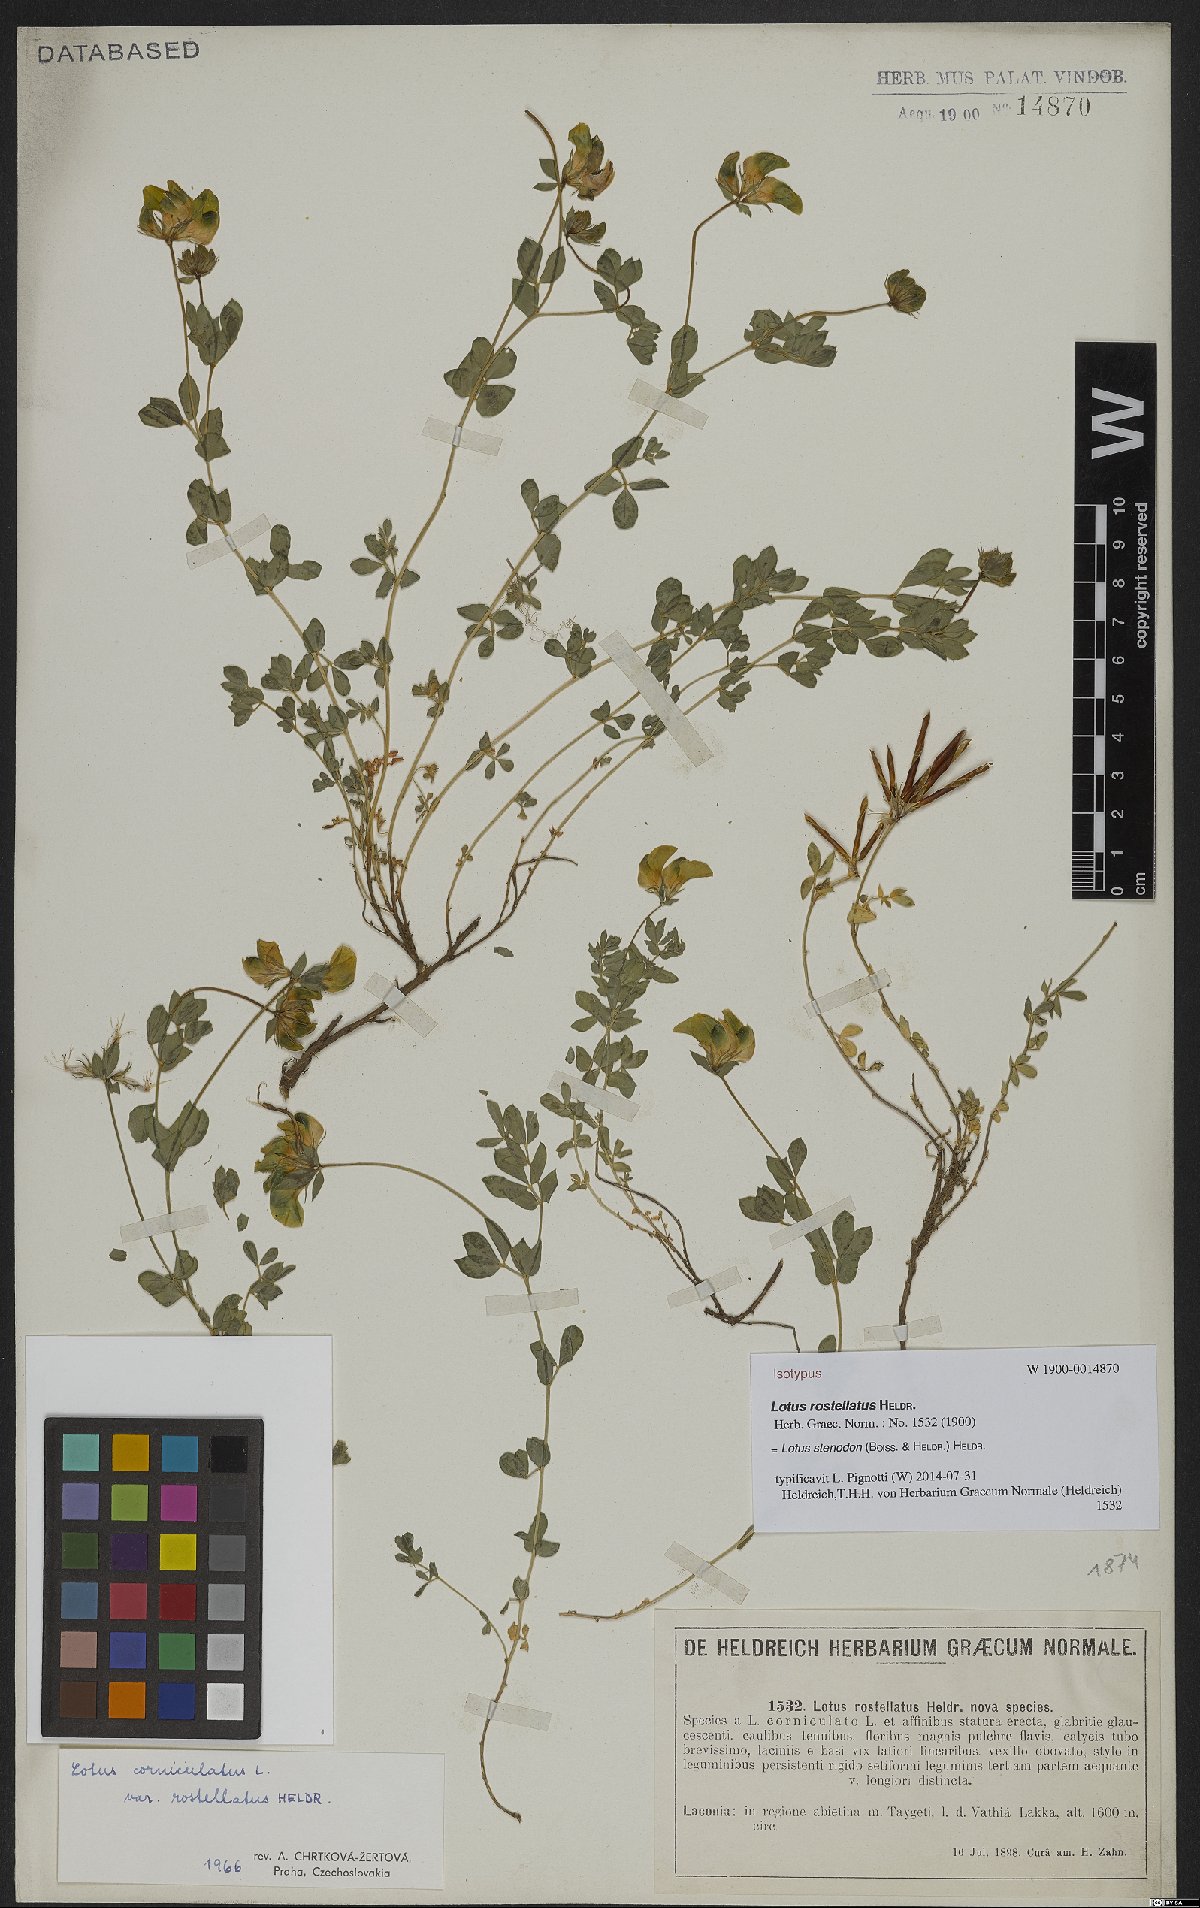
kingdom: Plantae
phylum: Tracheophyta
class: Magnoliopsida
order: Fabales
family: Fabaceae
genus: Lotus
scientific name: Lotus corniculatus
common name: Common bird's-foot-trefoil
